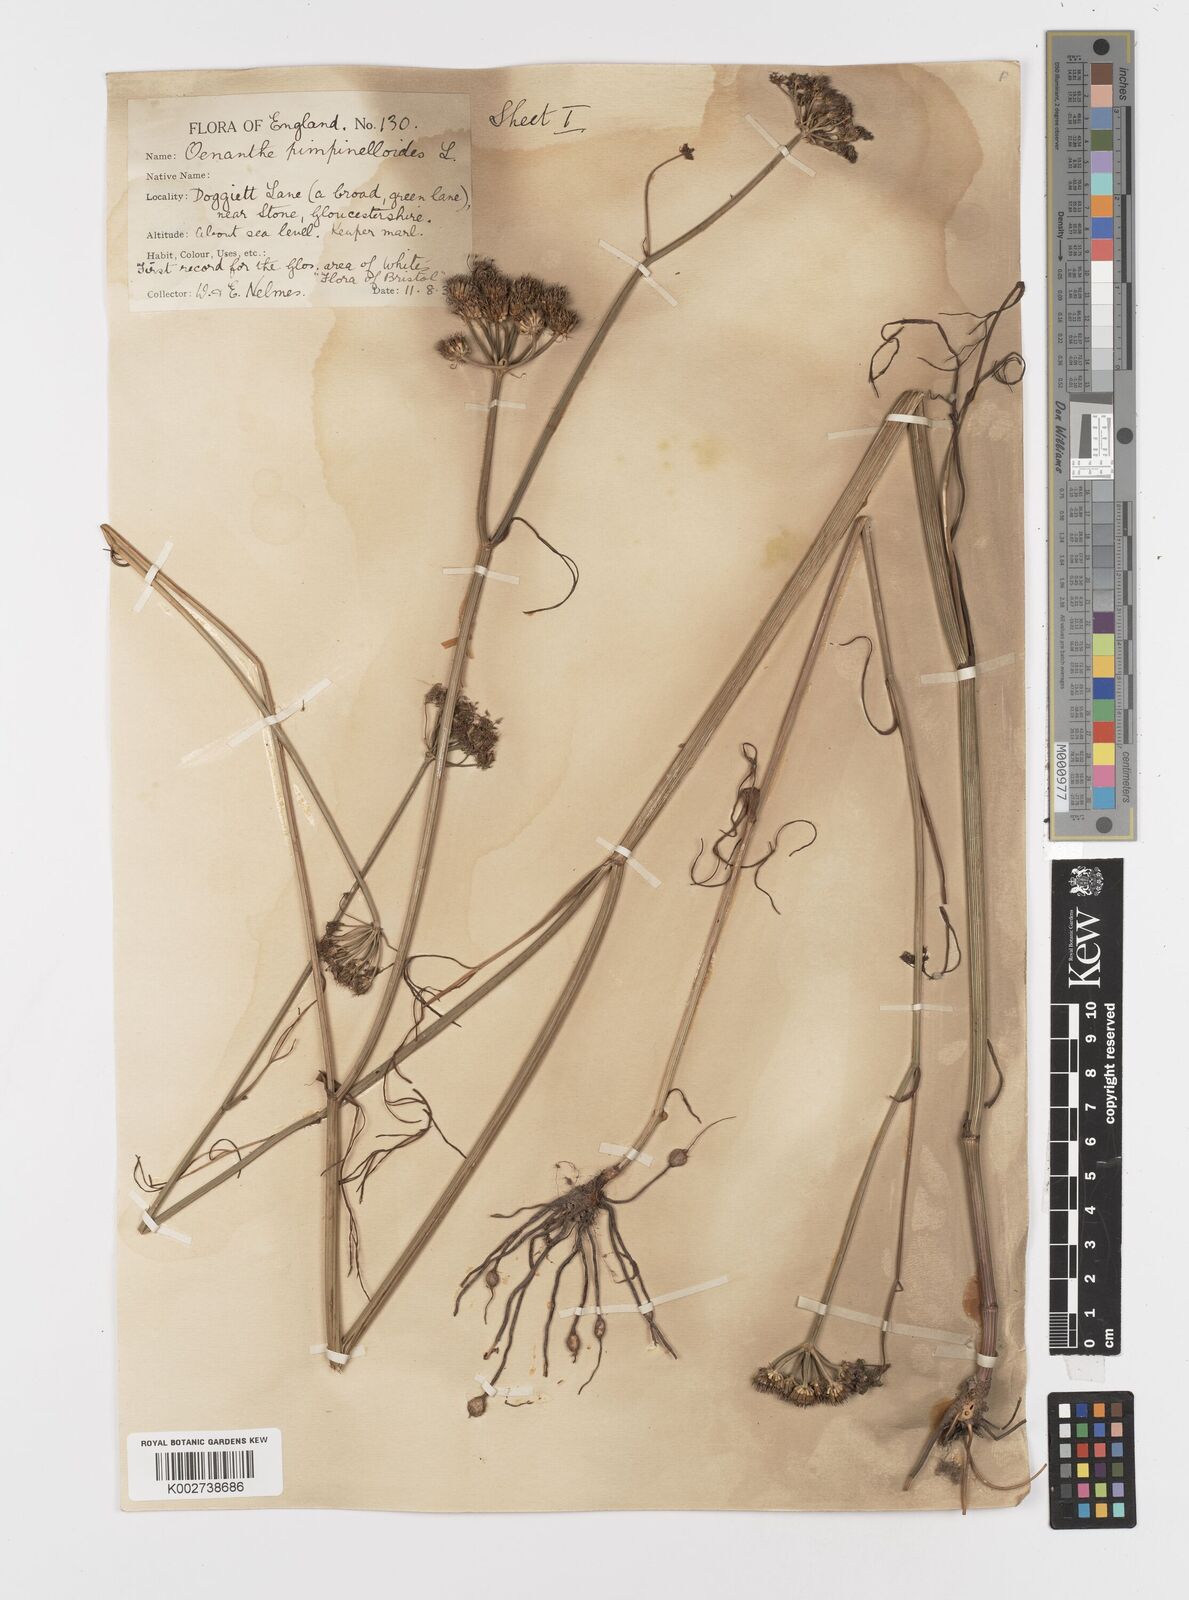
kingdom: Plantae
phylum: Tracheophyta
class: Magnoliopsida
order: Apiales
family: Apiaceae
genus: Oenanthe
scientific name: Oenanthe pimpinelloides
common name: Corky-fruited water-dropwort
